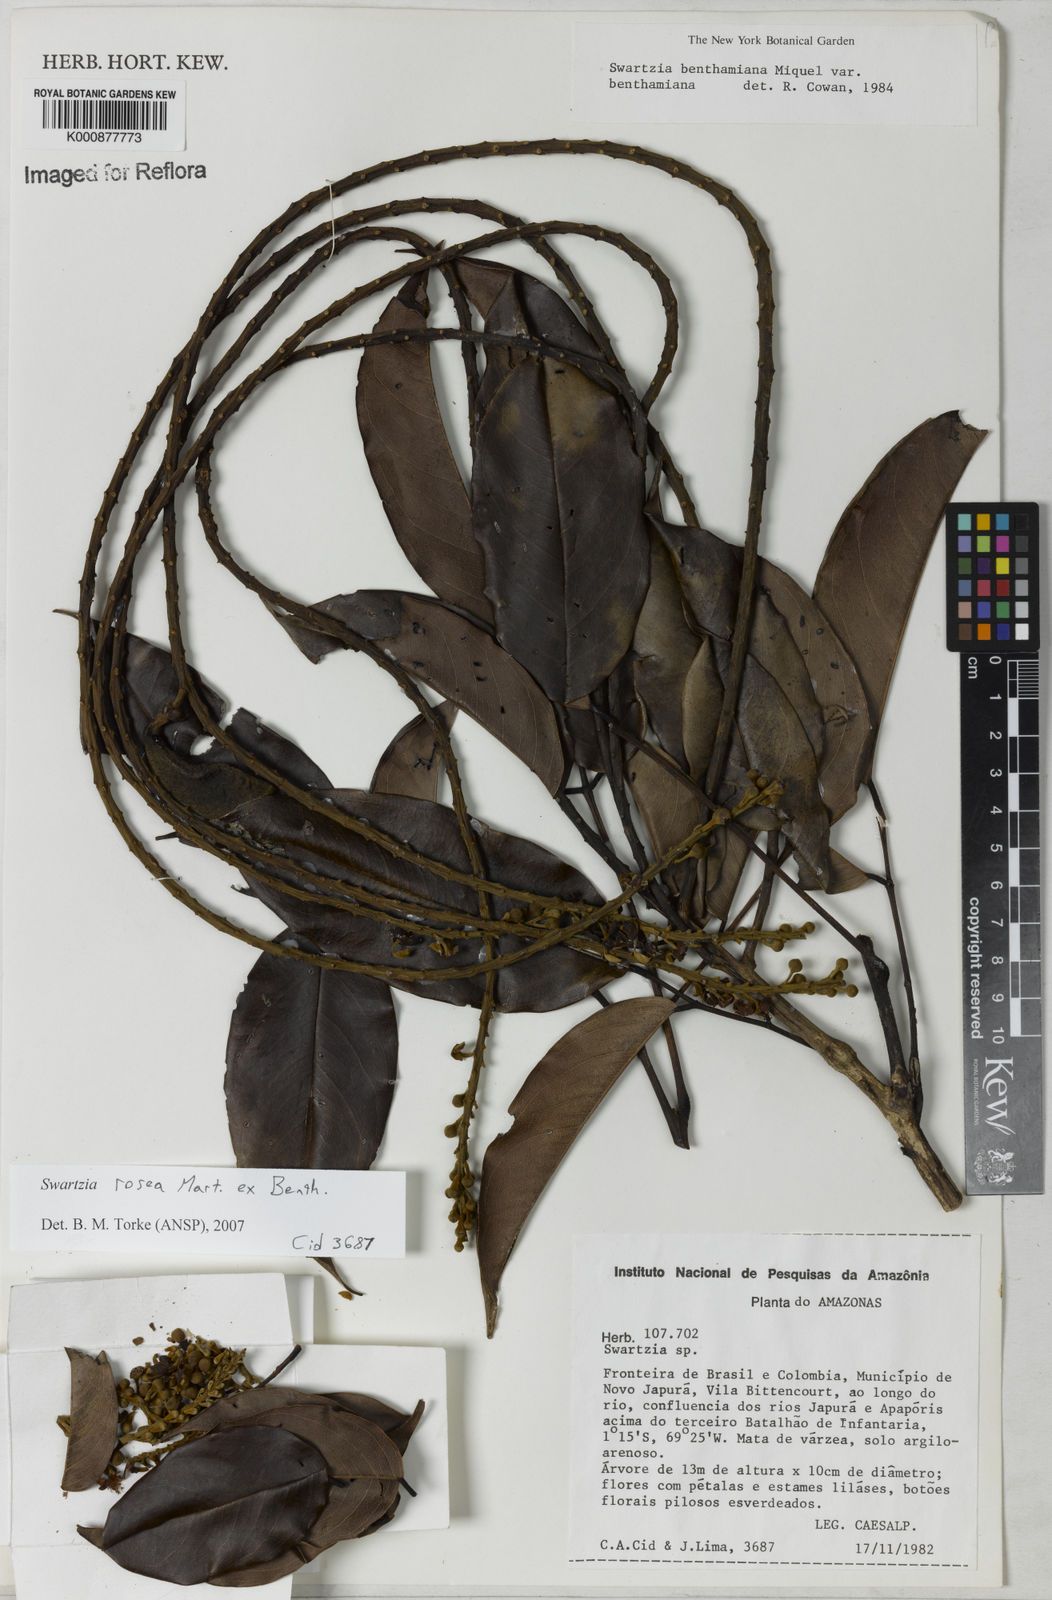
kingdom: Plantae
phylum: Tracheophyta
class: Magnoliopsida
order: Fabales
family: Fabaceae
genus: Swartzia
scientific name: Swartzia rosea
